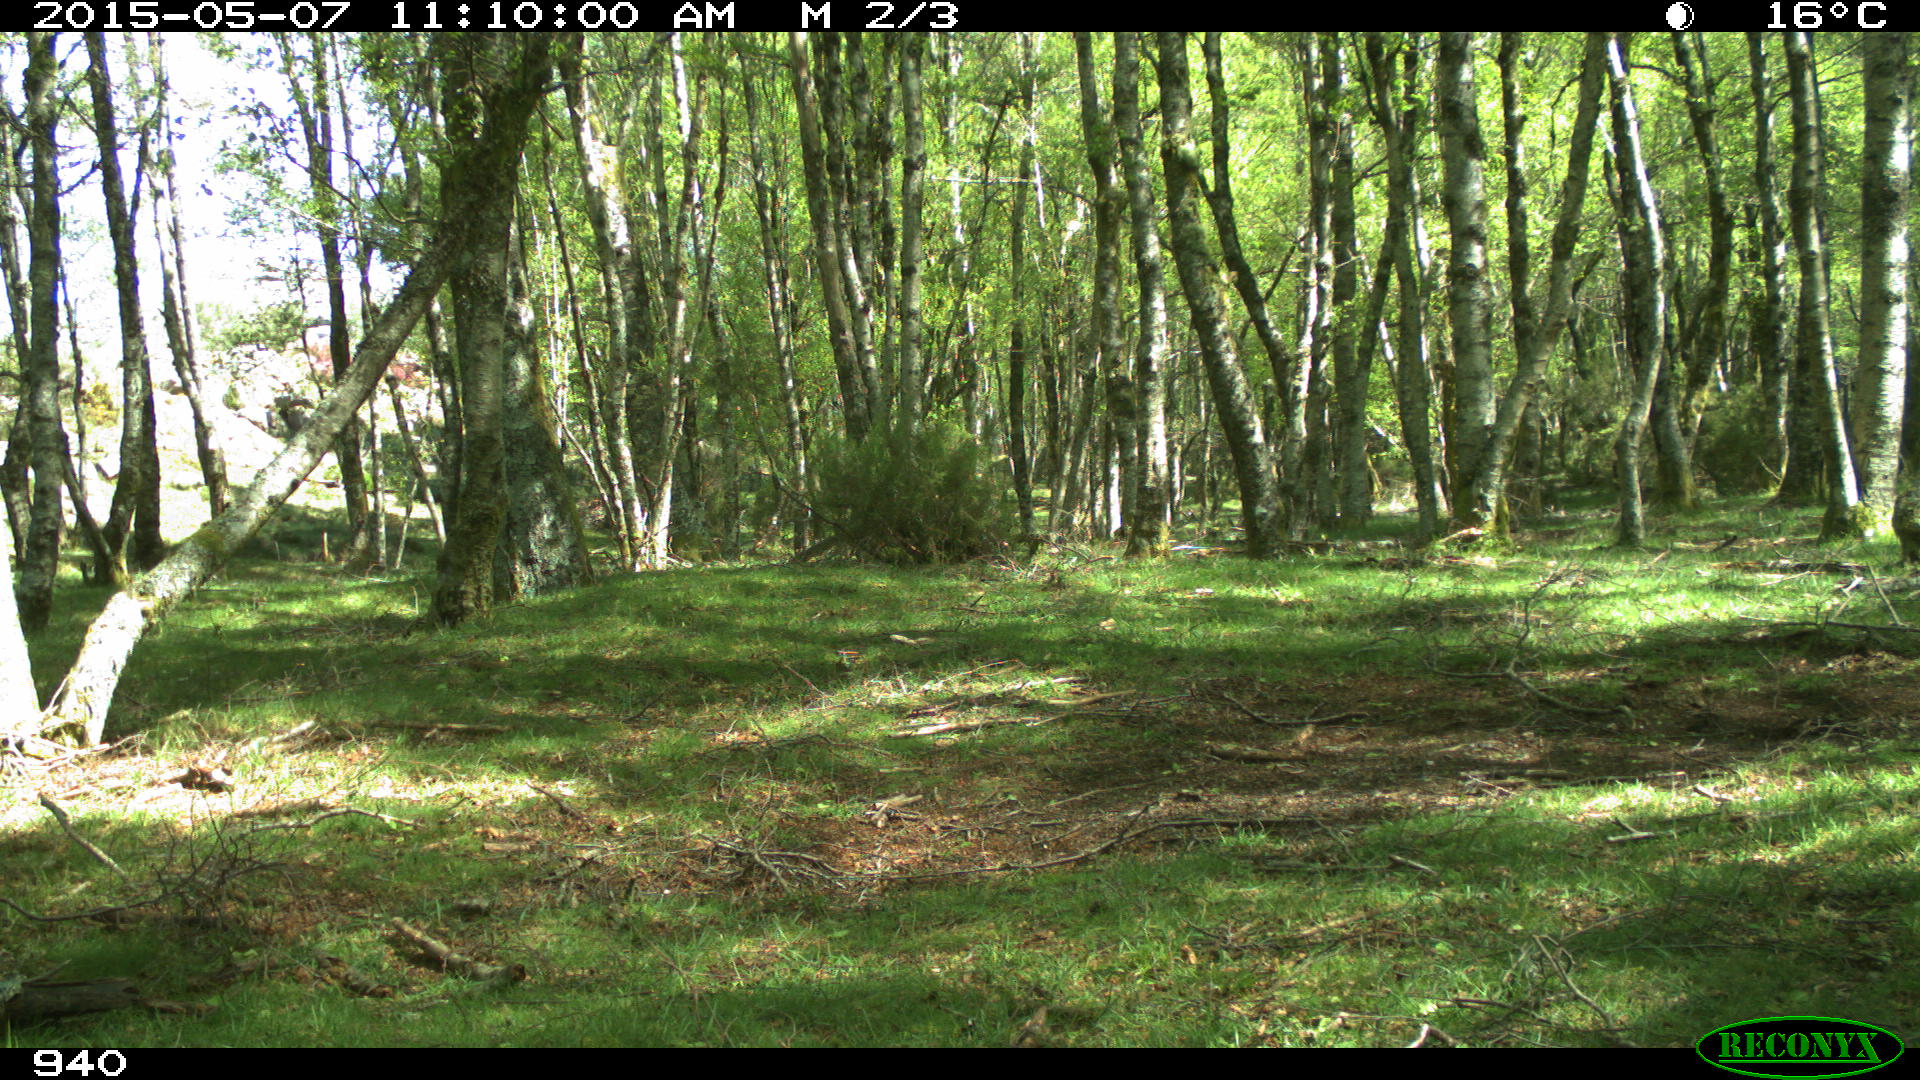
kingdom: Animalia
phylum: Chordata
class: Mammalia
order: Perissodactyla
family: Equidae
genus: Equus
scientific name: Equus caballus
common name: Horse
